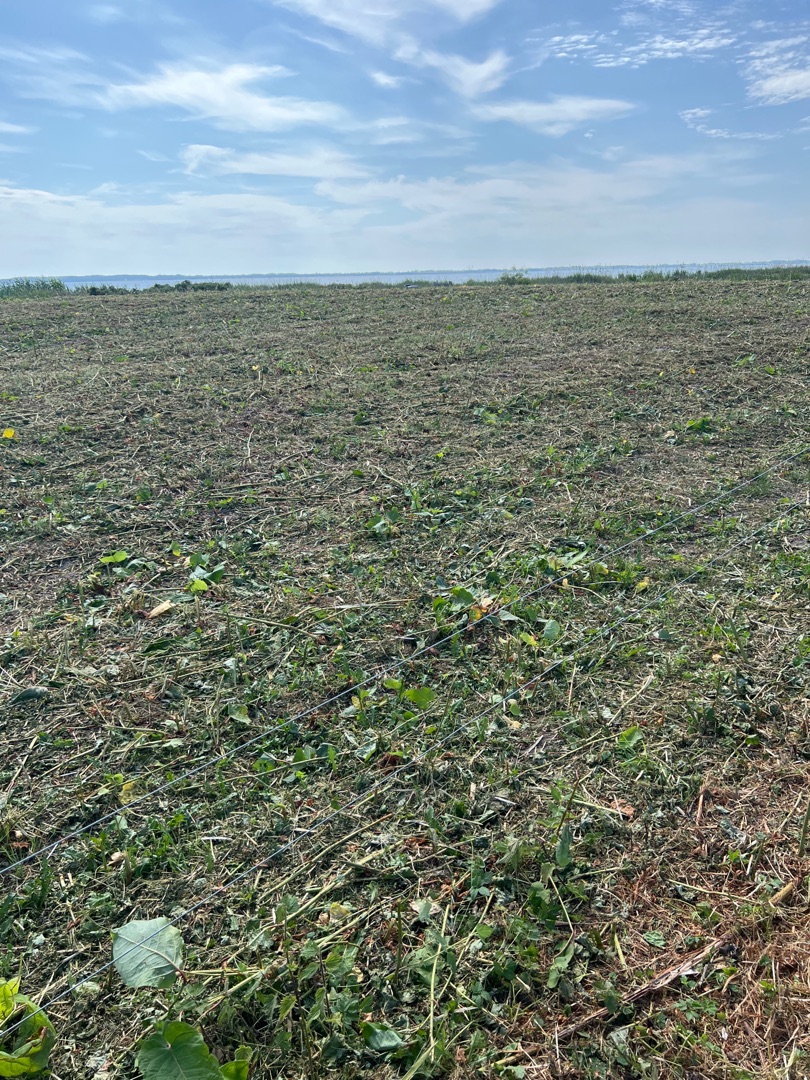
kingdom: Plantae
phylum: Tracheophyta
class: Magnoliopsida
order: Caryophyllales
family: Polygonaceae
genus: Reynoutria
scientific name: Reynoutria sachalinensis
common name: Kæmpe-pileurt
